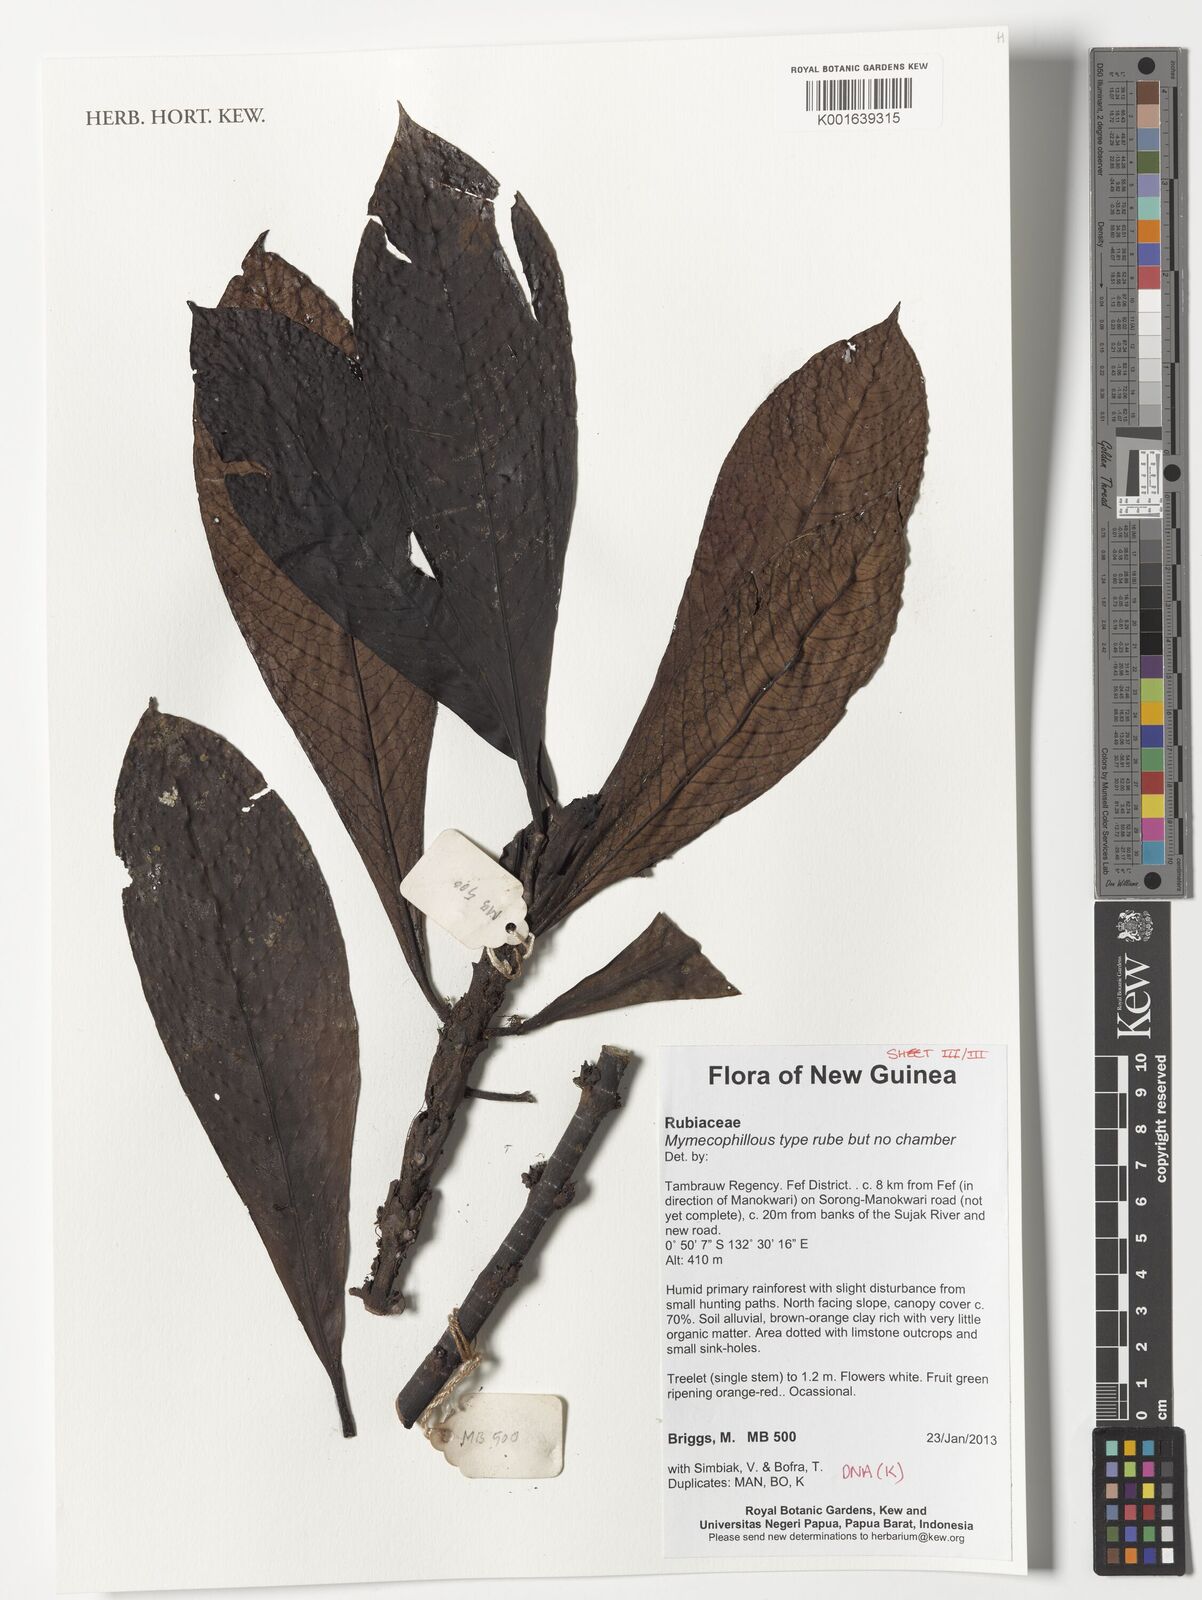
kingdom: Plantae
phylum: Tracheophyta
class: Magnoliopsida
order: Gentianales
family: Rubiaceae
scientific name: Rubiaceae
